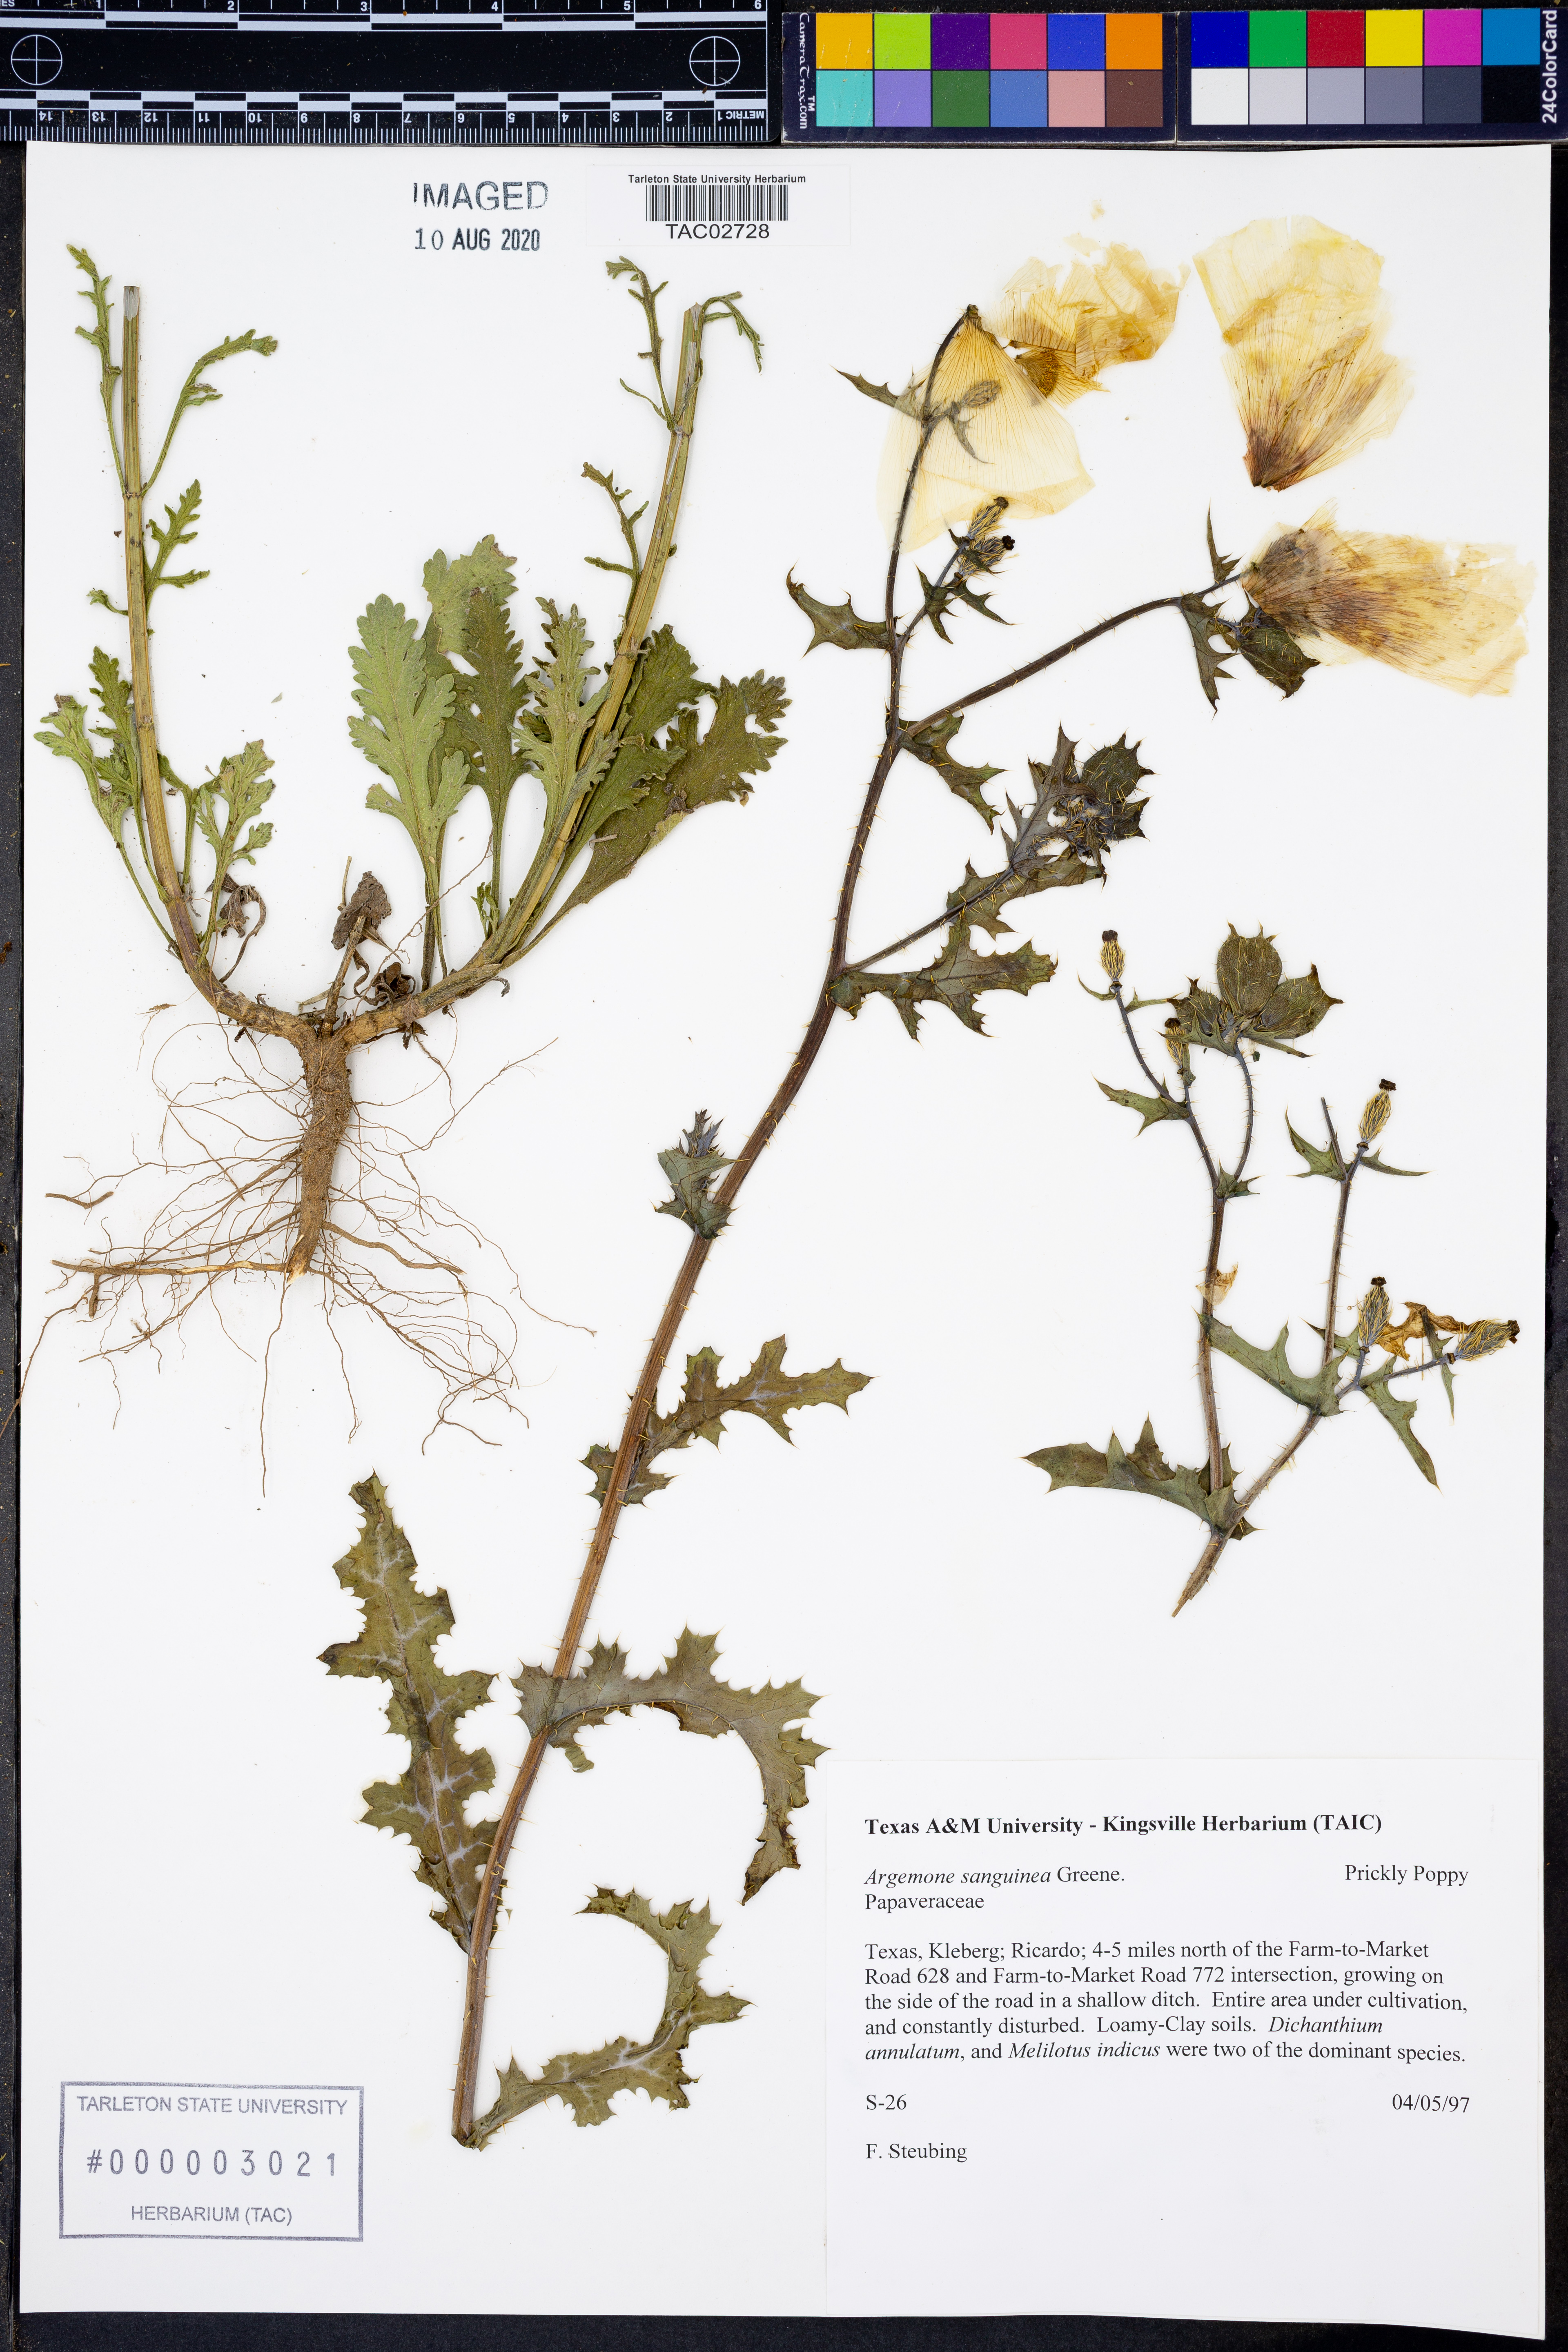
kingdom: Plantae
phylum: Tracheophyta
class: Magnoliopsida
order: Ranunculales
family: Papaveraceae
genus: Argemone
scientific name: Argemone sanguinea
